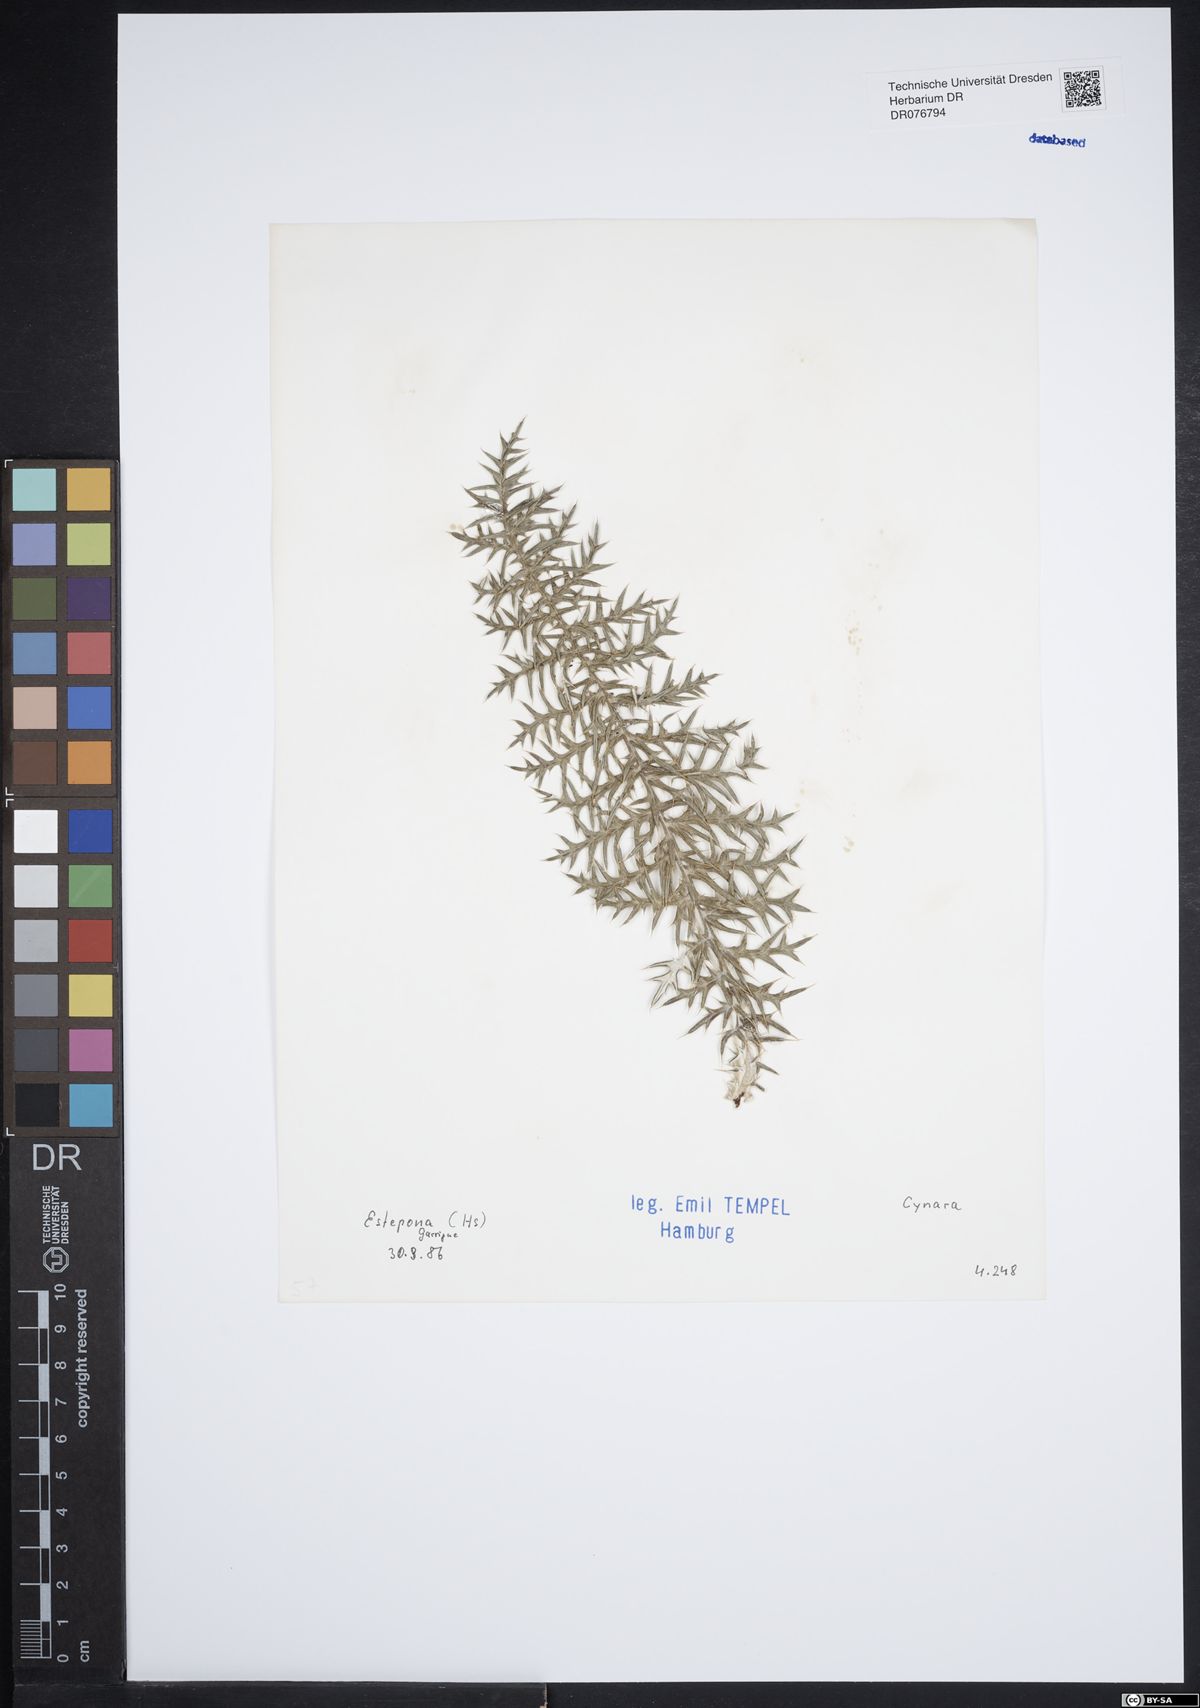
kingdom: Plantae
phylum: Tracheophyta
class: Magnoliopsida
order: Asterales
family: Asteraceae
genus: Cynara
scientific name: Cynara
